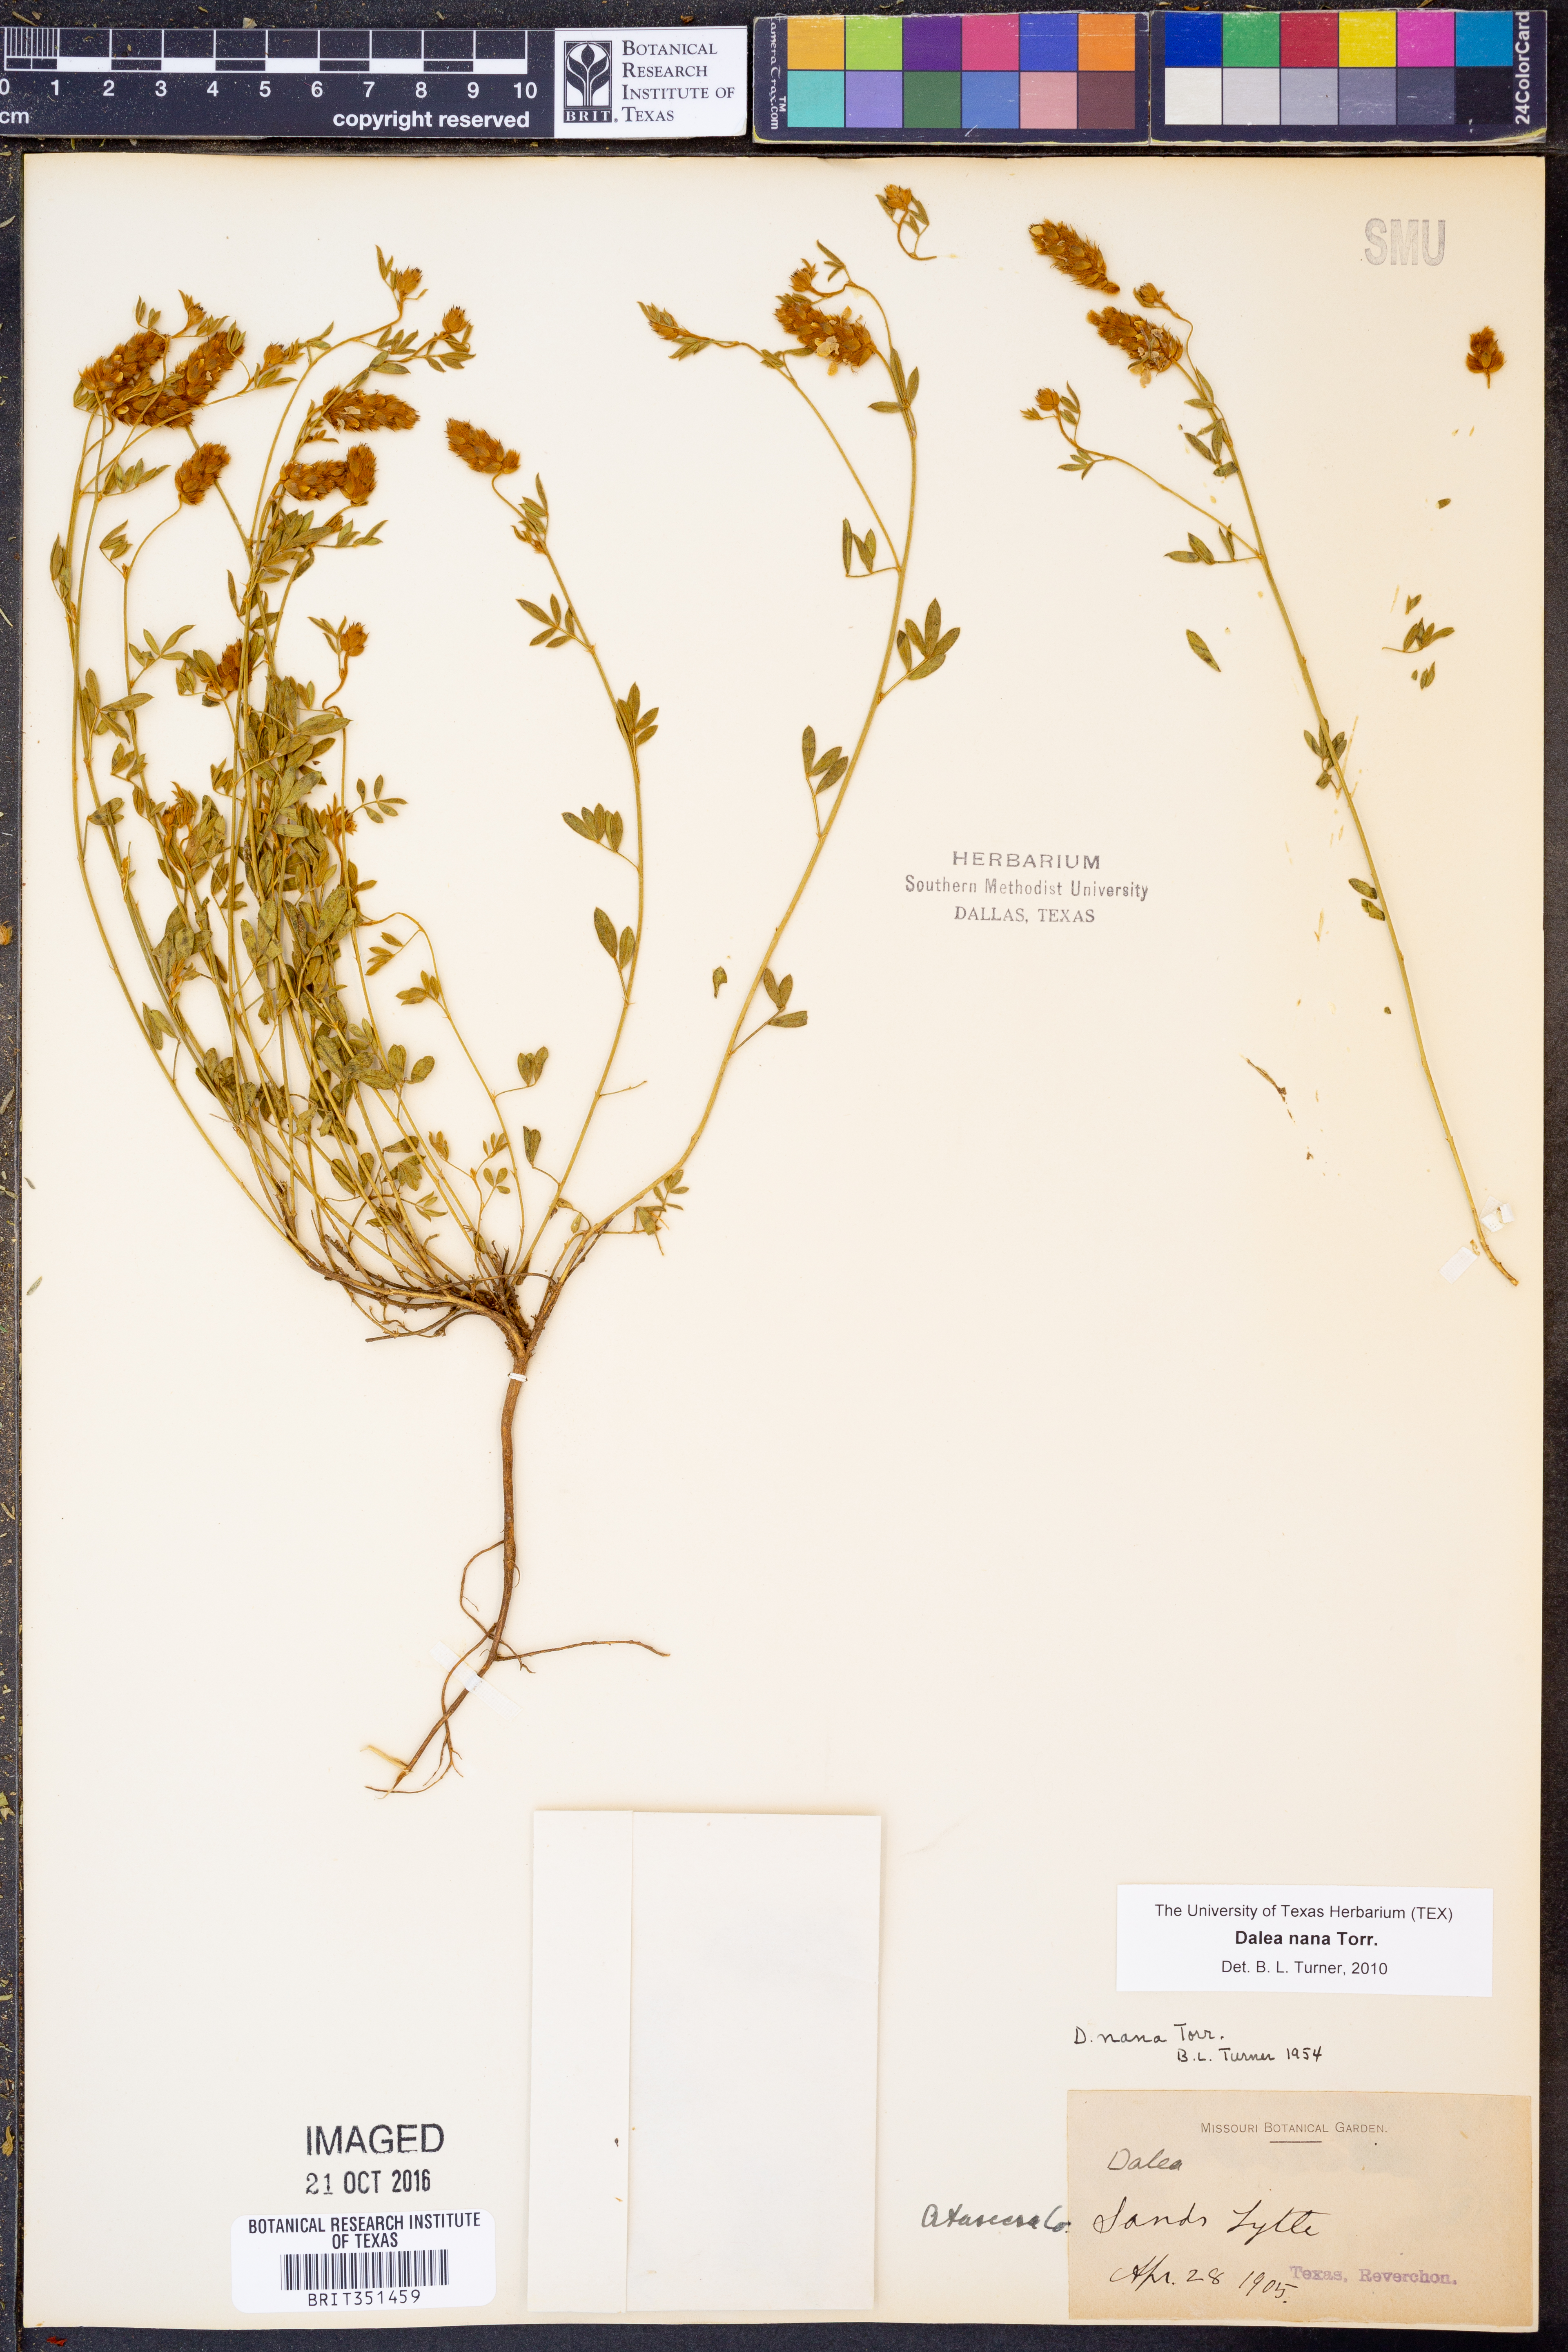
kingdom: Plantae
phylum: Tracheophyta
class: Magnoliopsida
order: Fabales
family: Fabaceae
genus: Dalea
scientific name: Dalea nana
